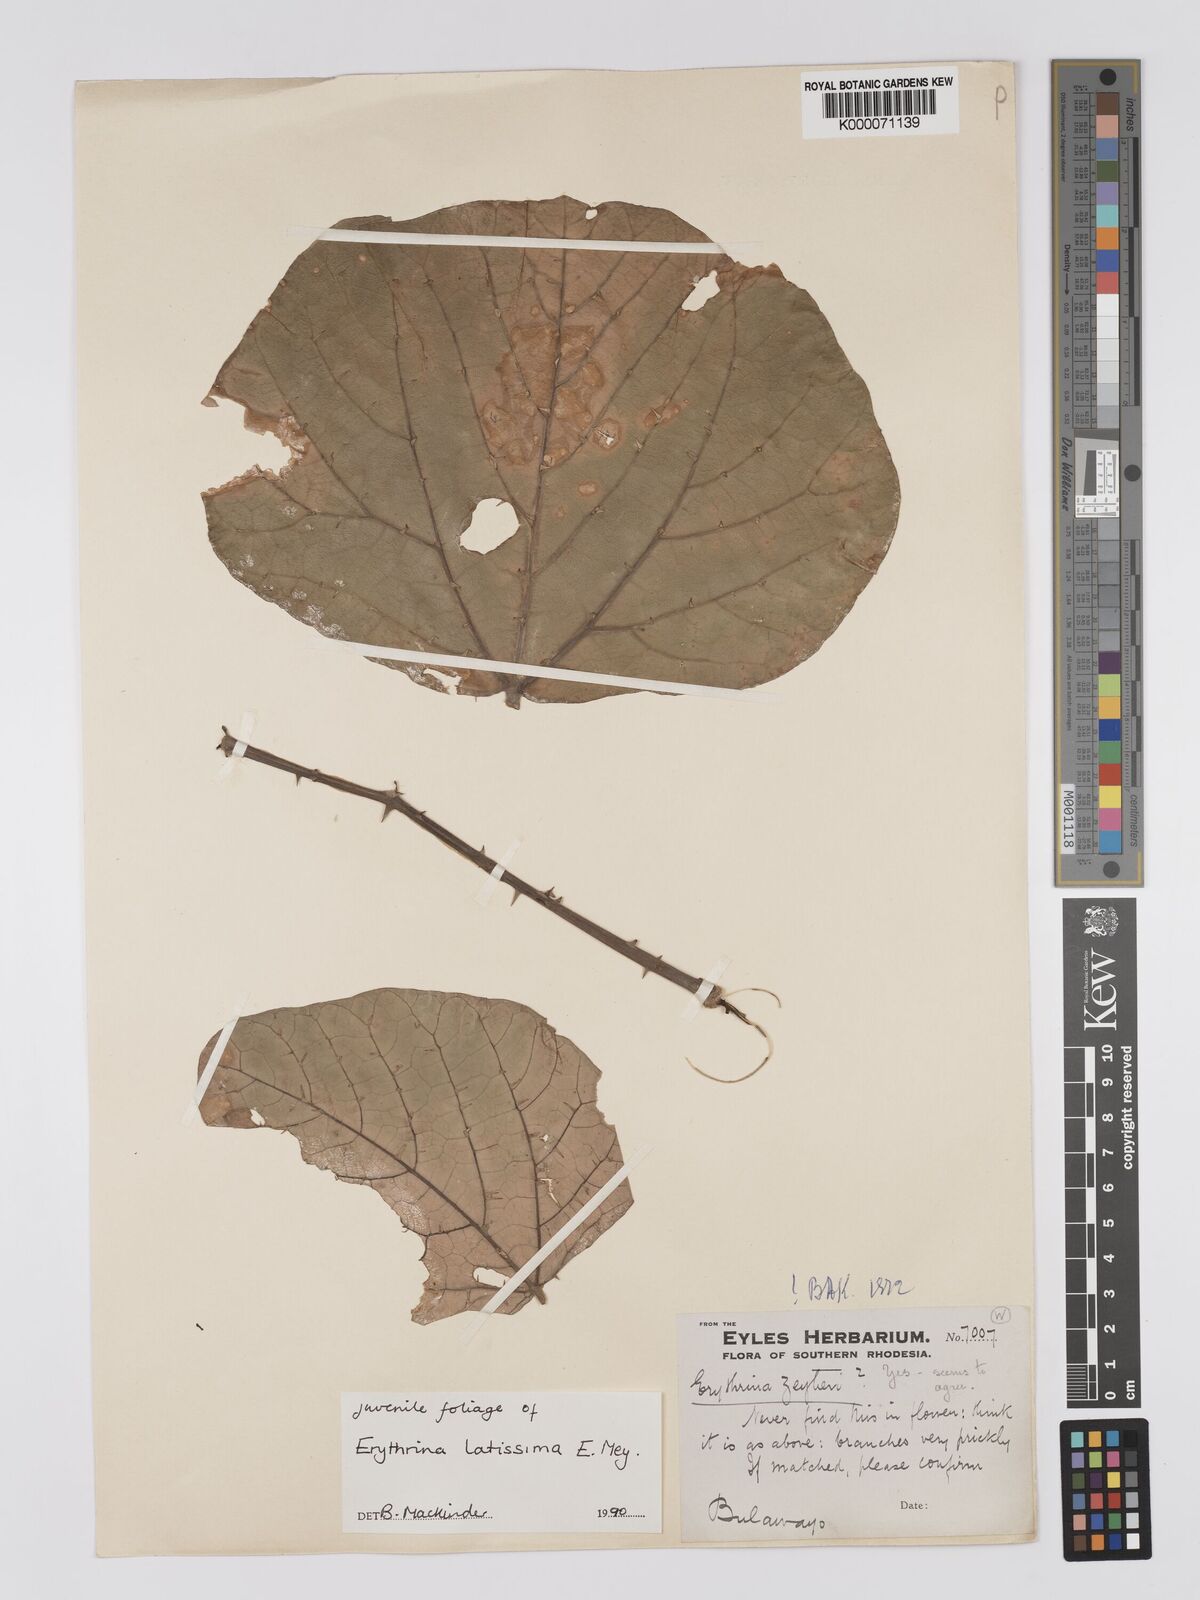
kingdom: Plantae
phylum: Tracheophyta
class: Magnoliopsida
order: Fabales
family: Fabaceae
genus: Erythrina
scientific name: Erythrina latissima
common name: Broad-leaved coral tree
